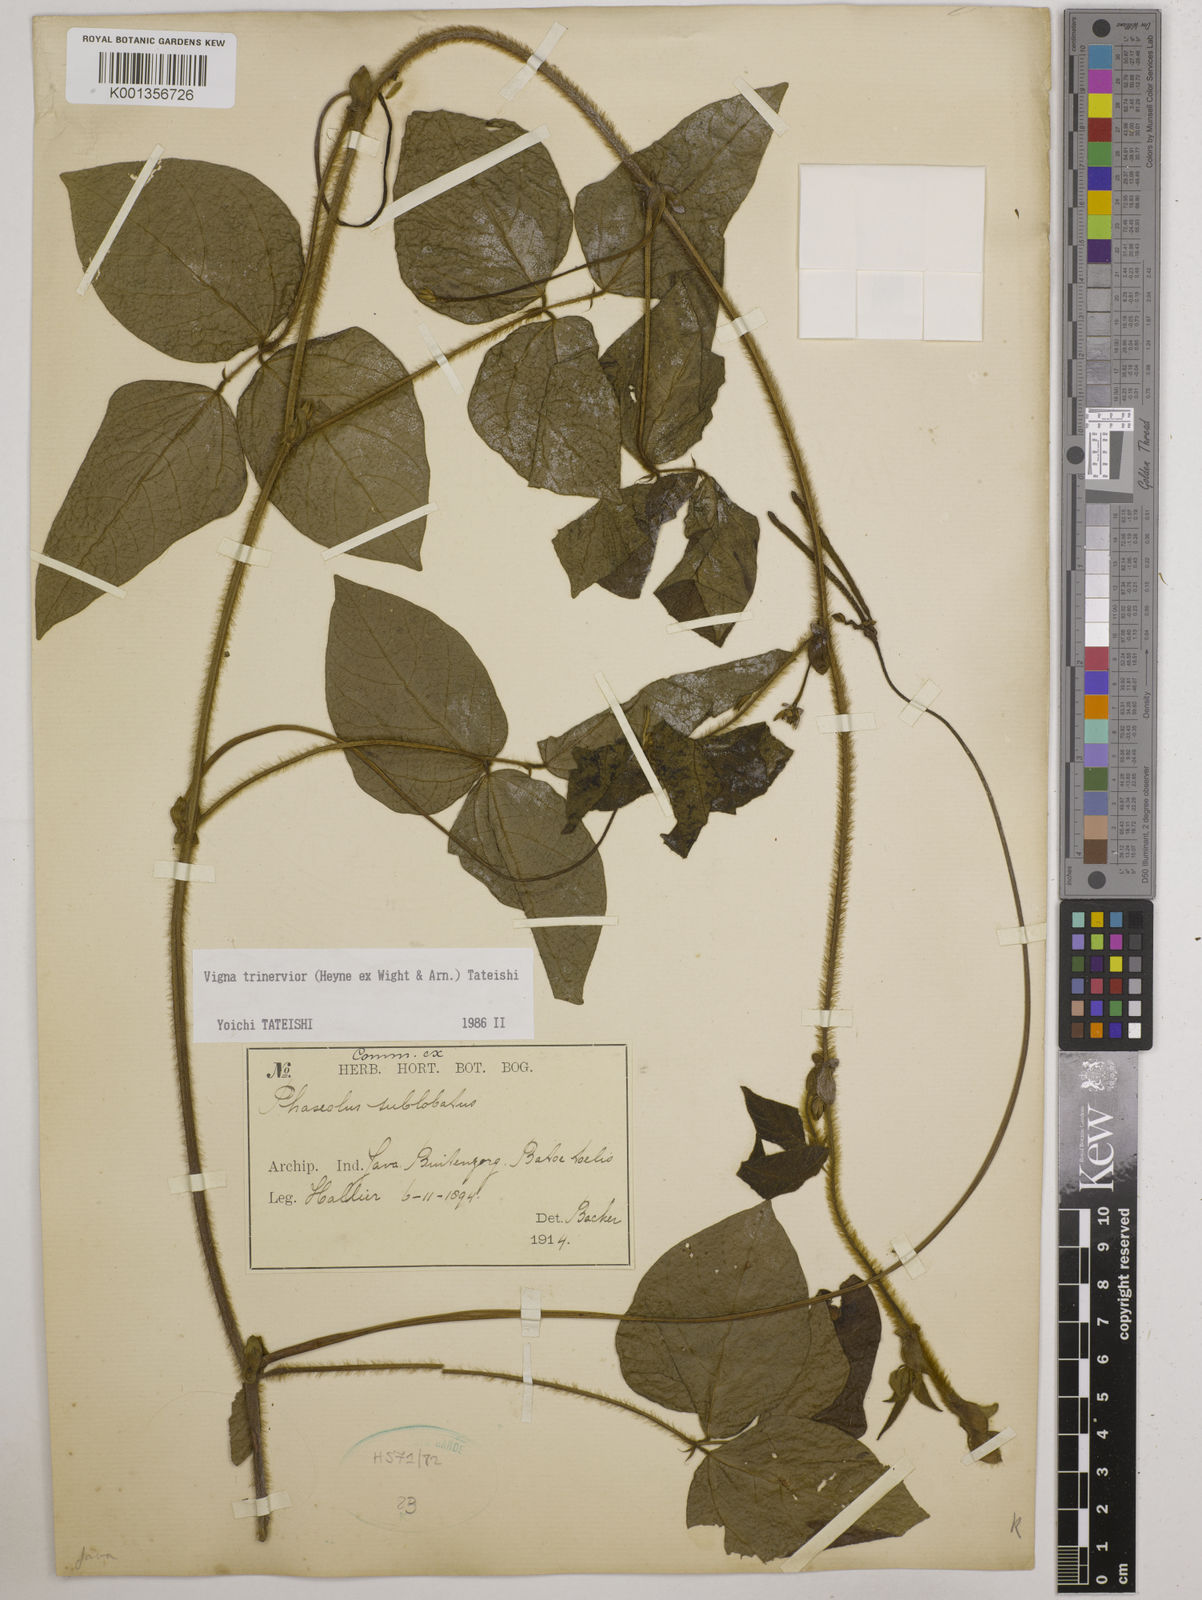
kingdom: Plantae
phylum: Tracheophyta
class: Magnoliopsida
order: Fabales
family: Fabaceae
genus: Vigna
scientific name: Vigna
